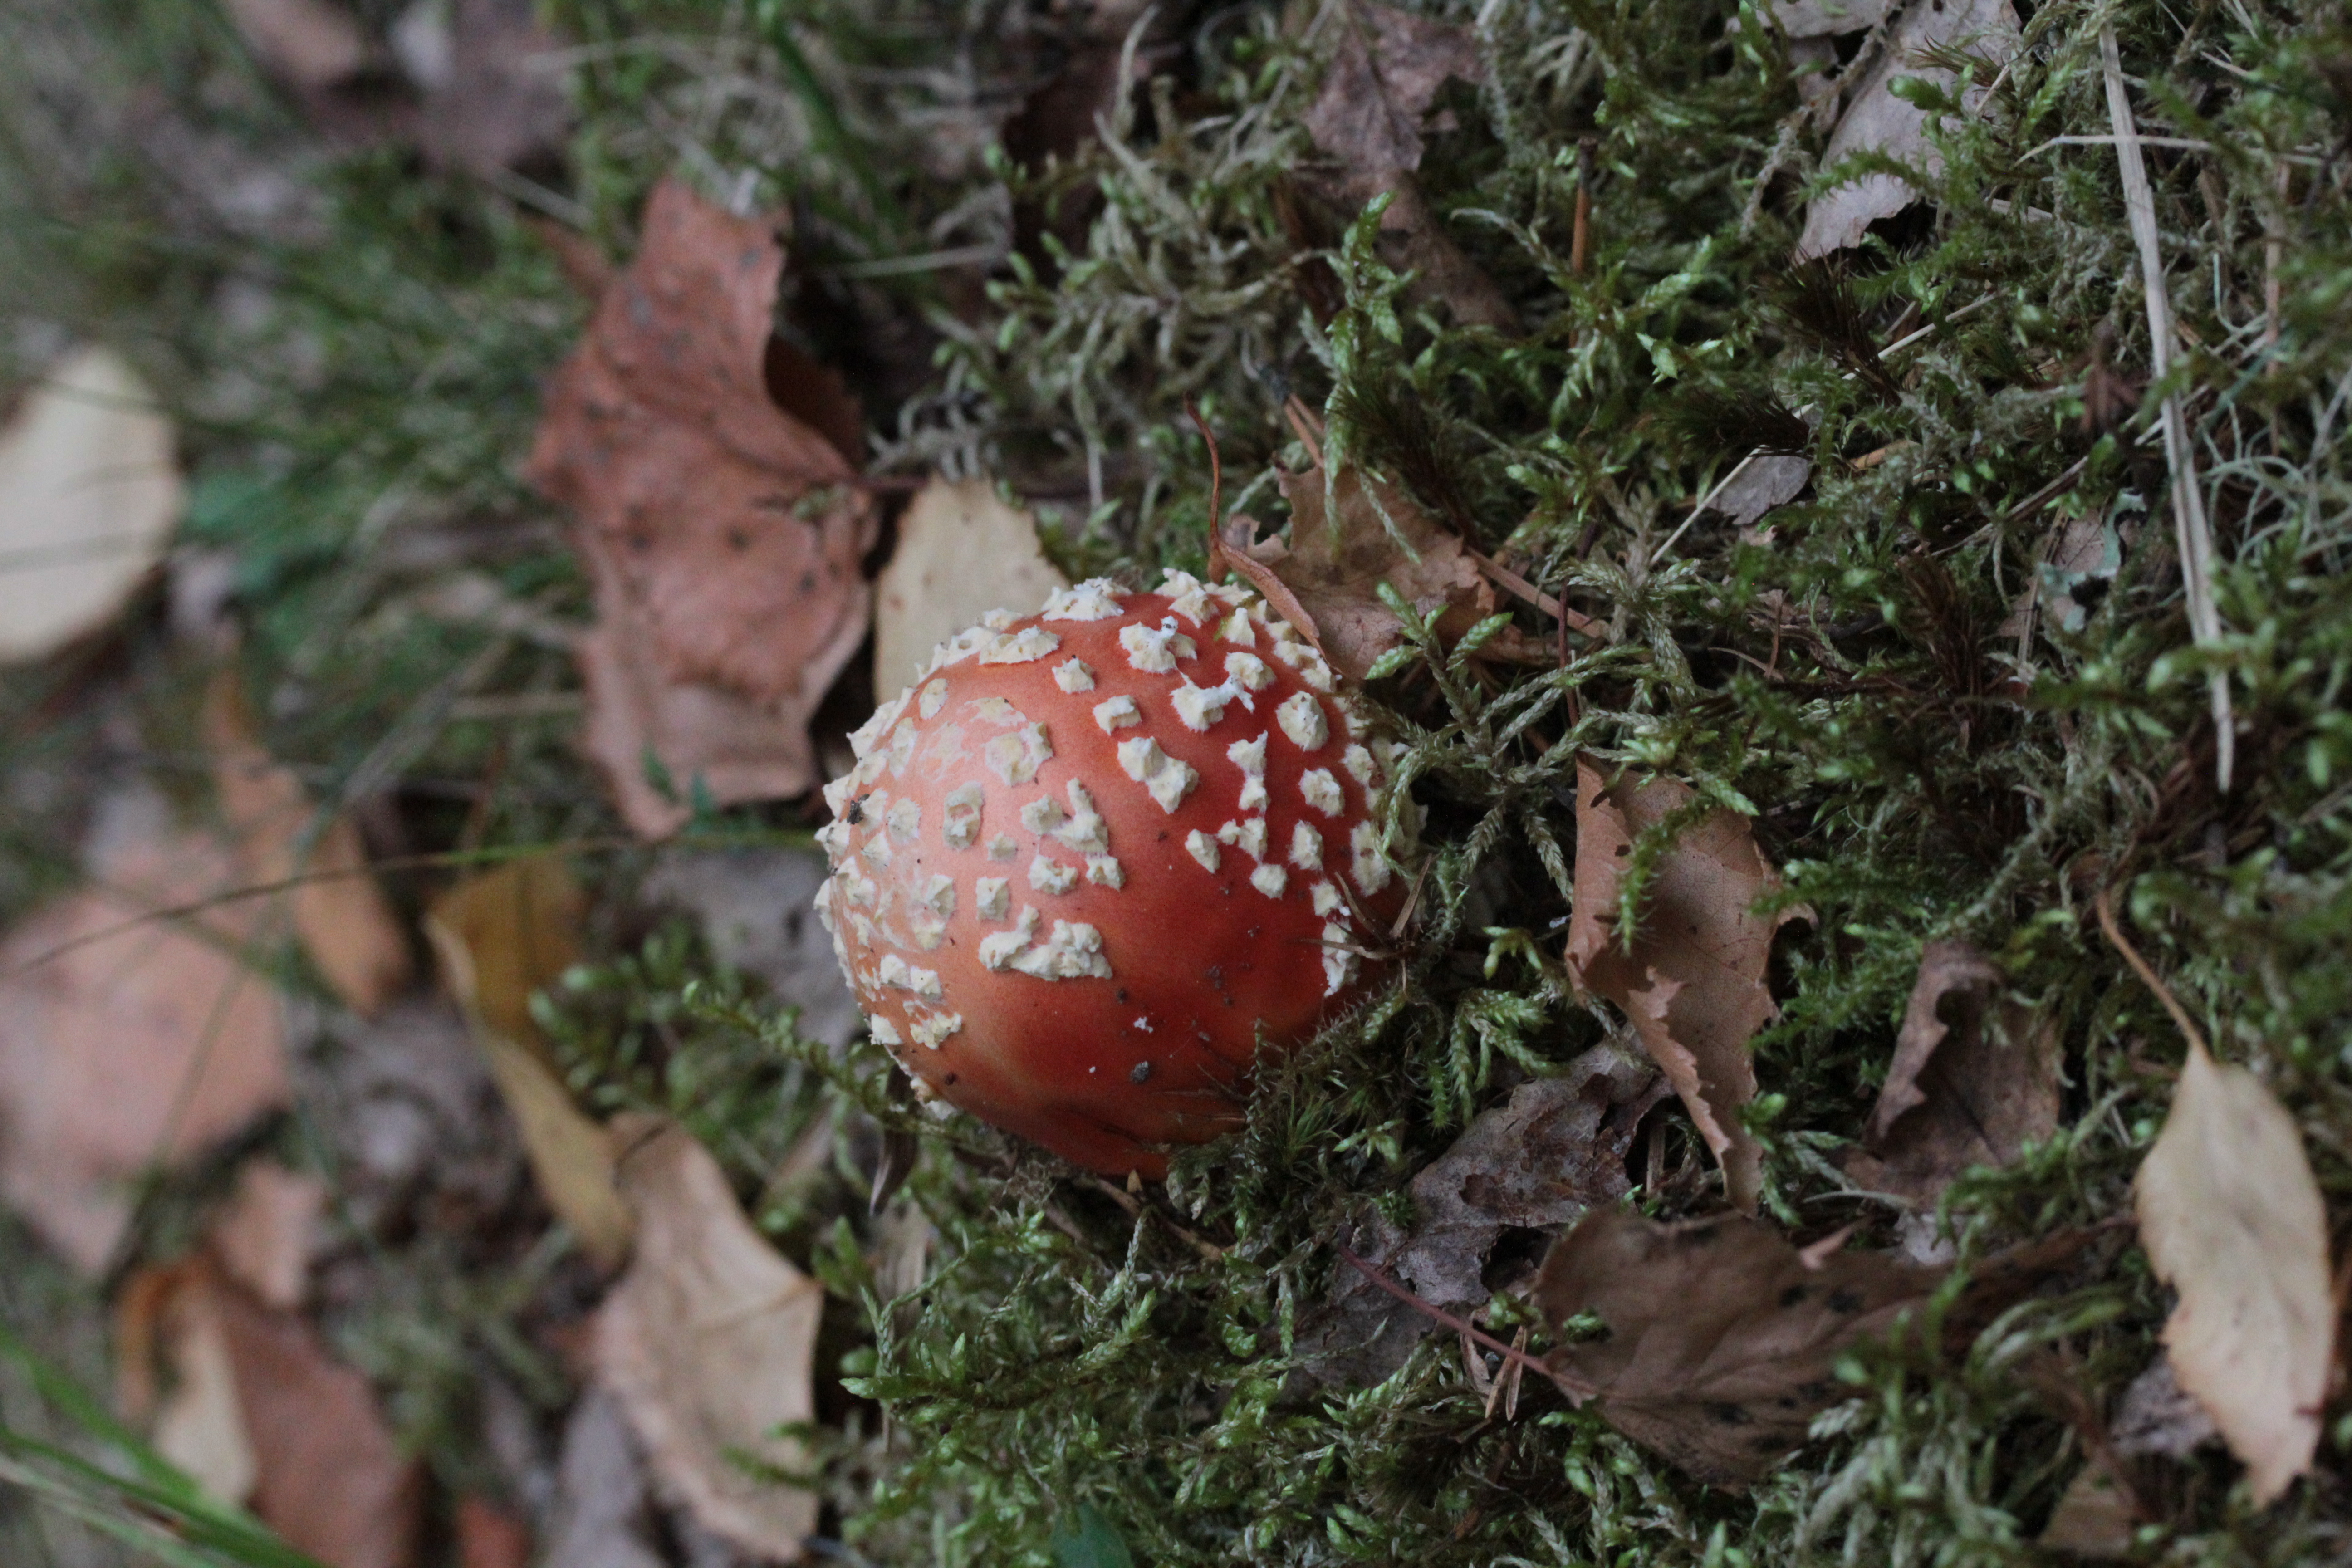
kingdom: Fungi
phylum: Basidiomycota
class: Agaricomycetes
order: Agaricales
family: Amanitaceae
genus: Amanita
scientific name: Amanita muscaria
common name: Fly agaric
